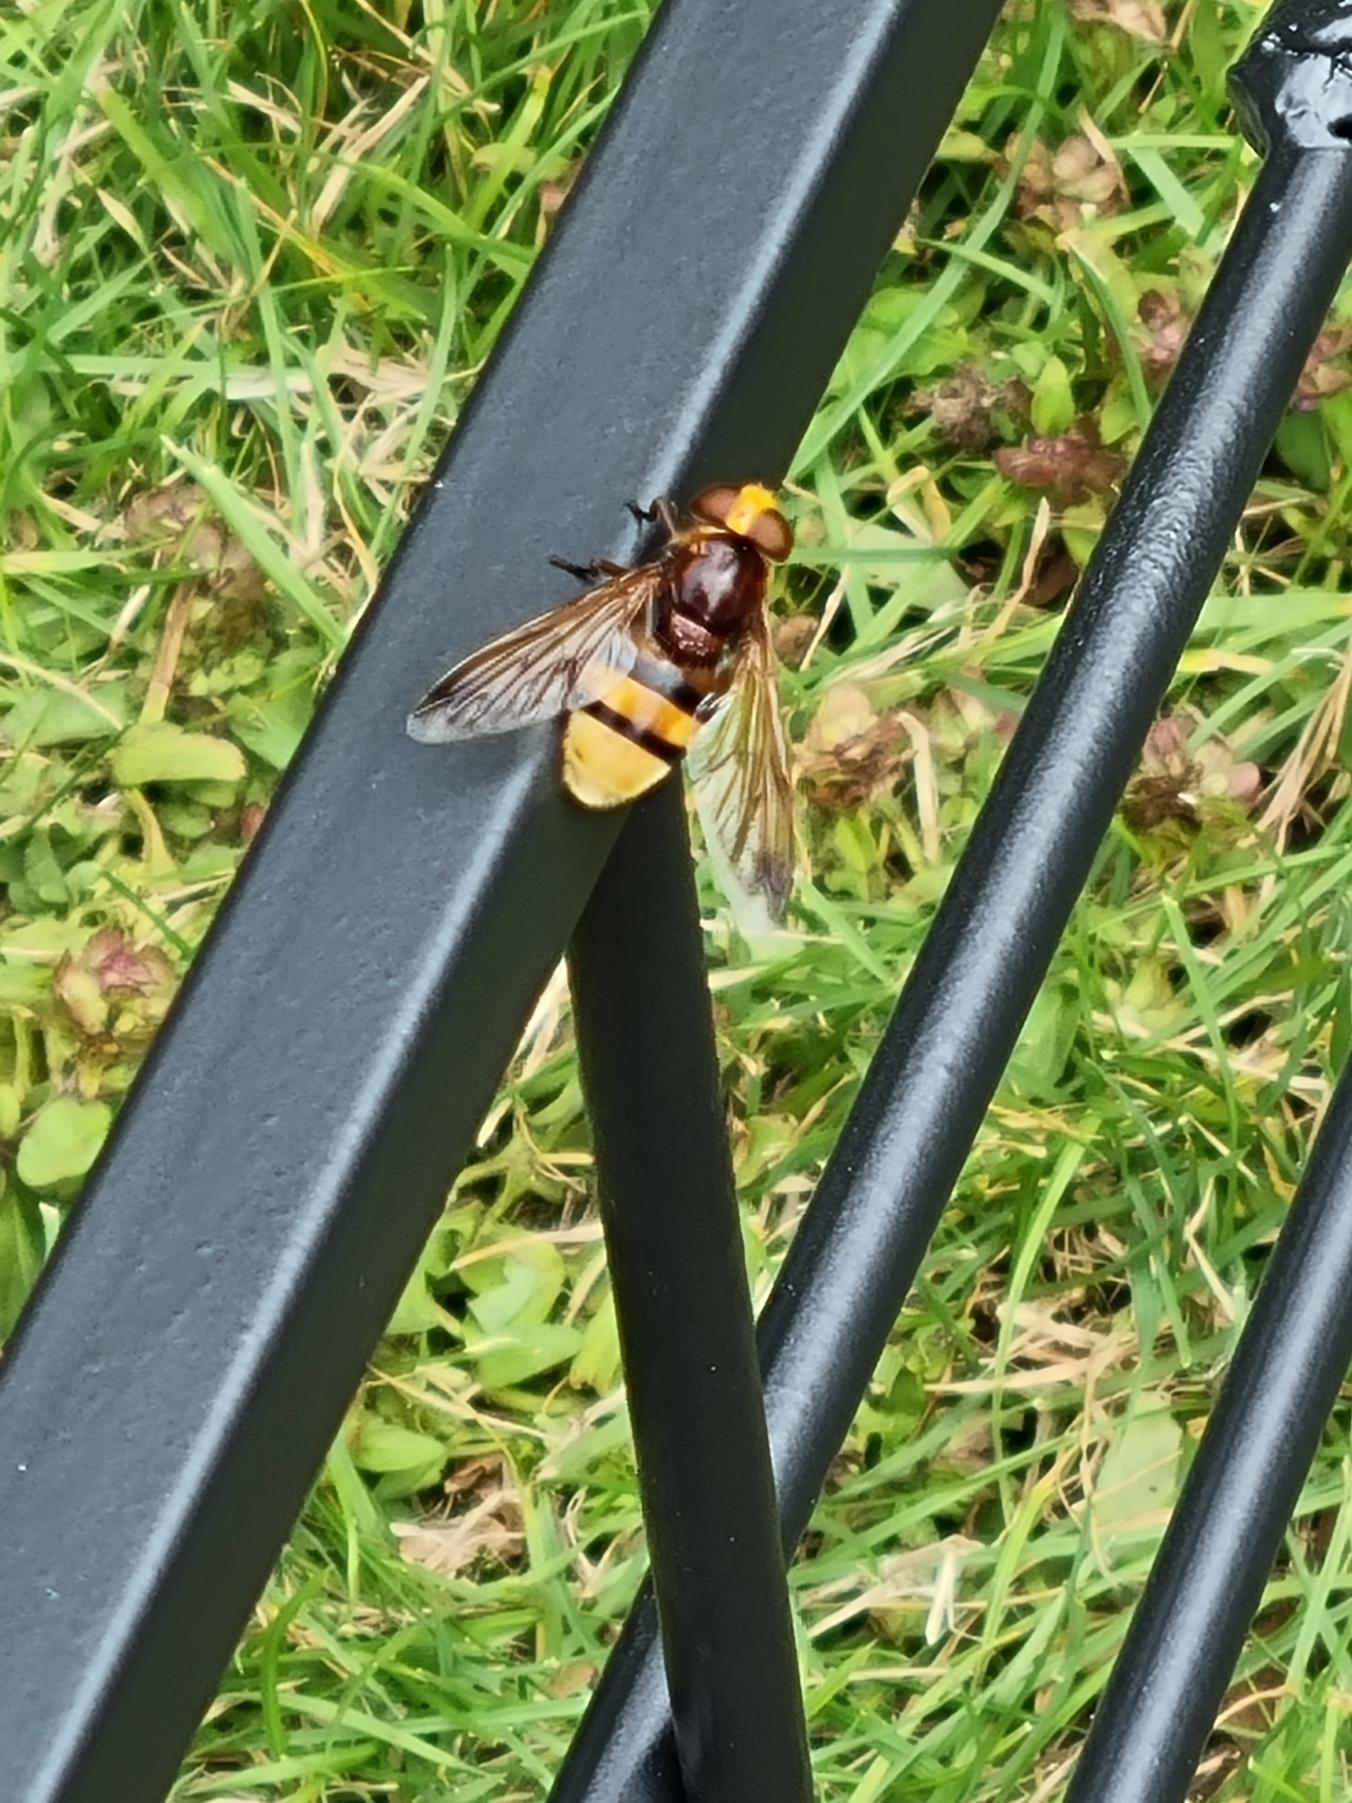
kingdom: Animalia
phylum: Arthropoda
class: Insecta
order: Diptera
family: Syrphidae
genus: Volucella
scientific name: Volucella zonaria
